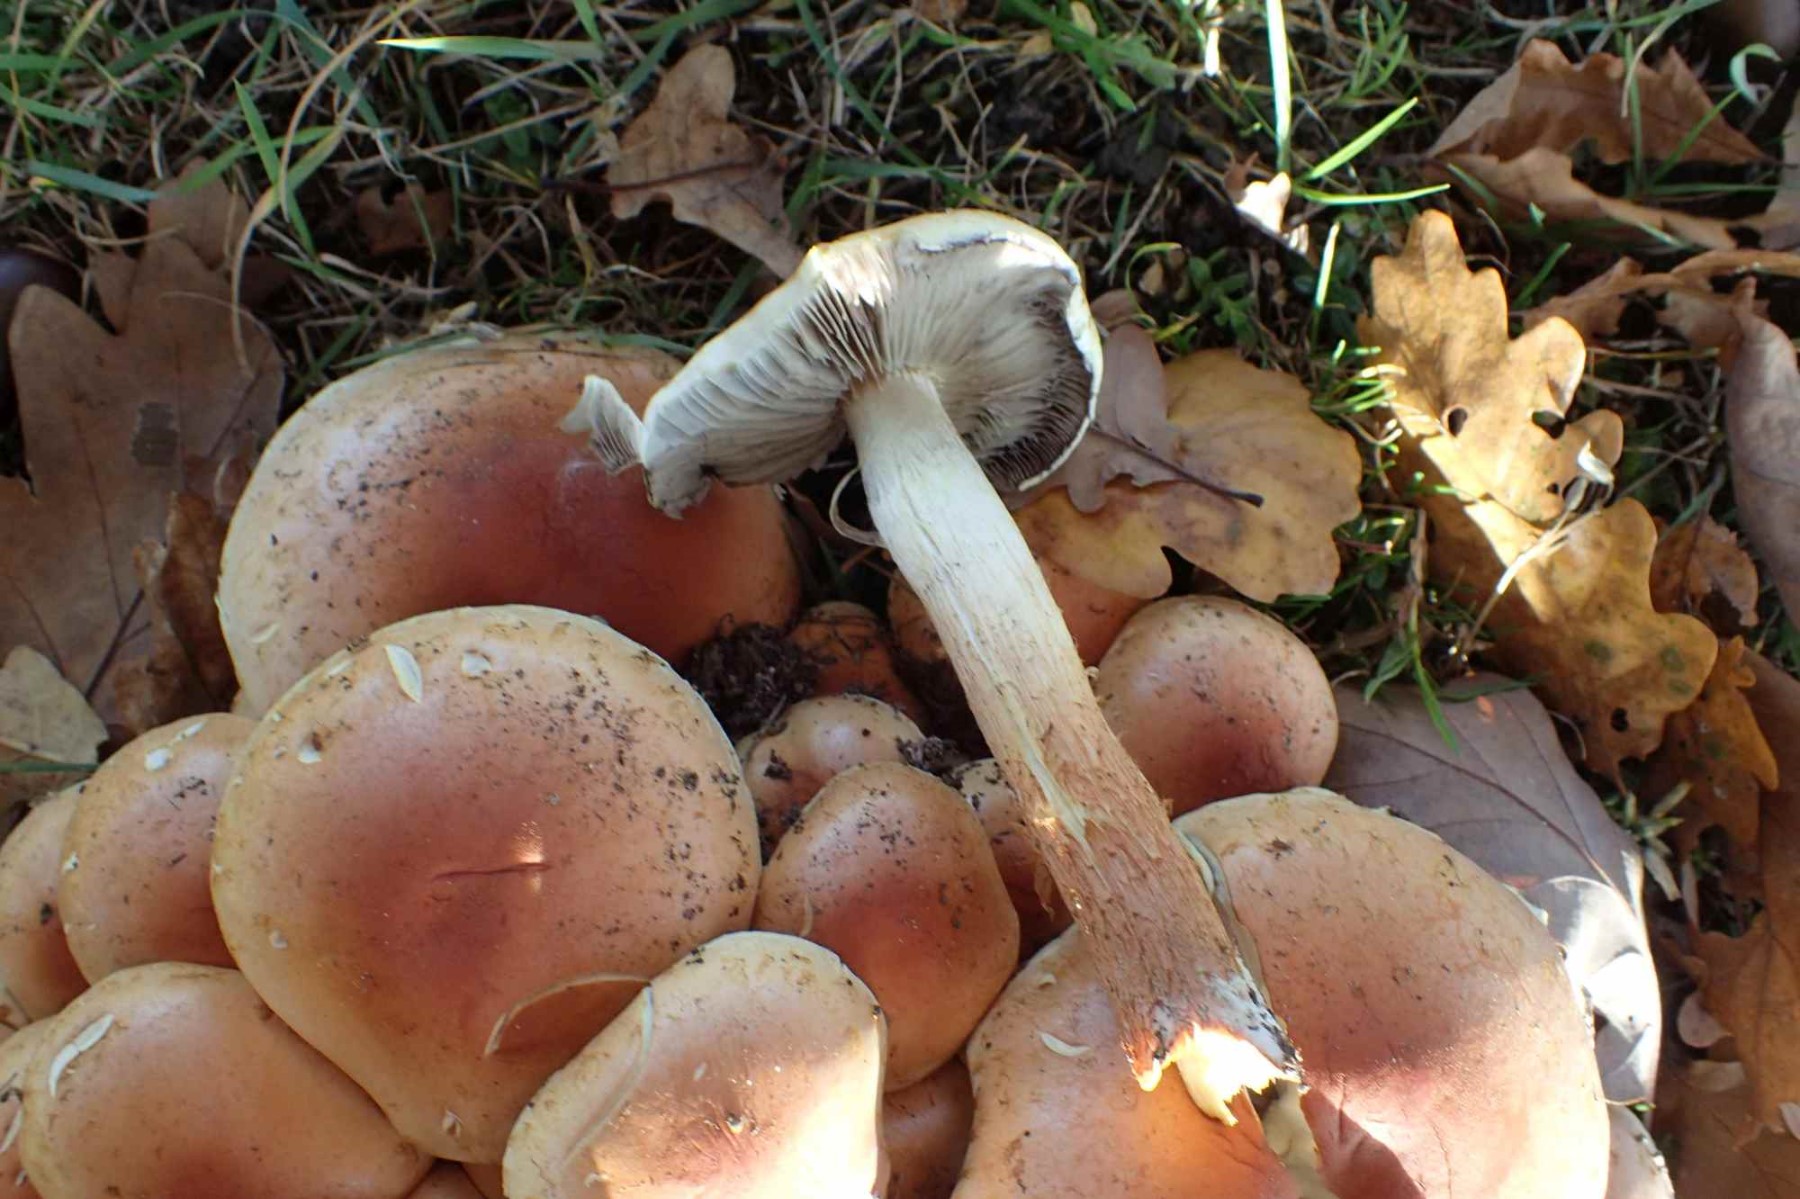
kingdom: Fungi
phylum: Basidiomycota
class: Agaricomycetes
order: Agaricales
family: Strophariaceae
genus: Hypholoma
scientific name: Hypholoma lateritium
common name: teglrød svovlhat
